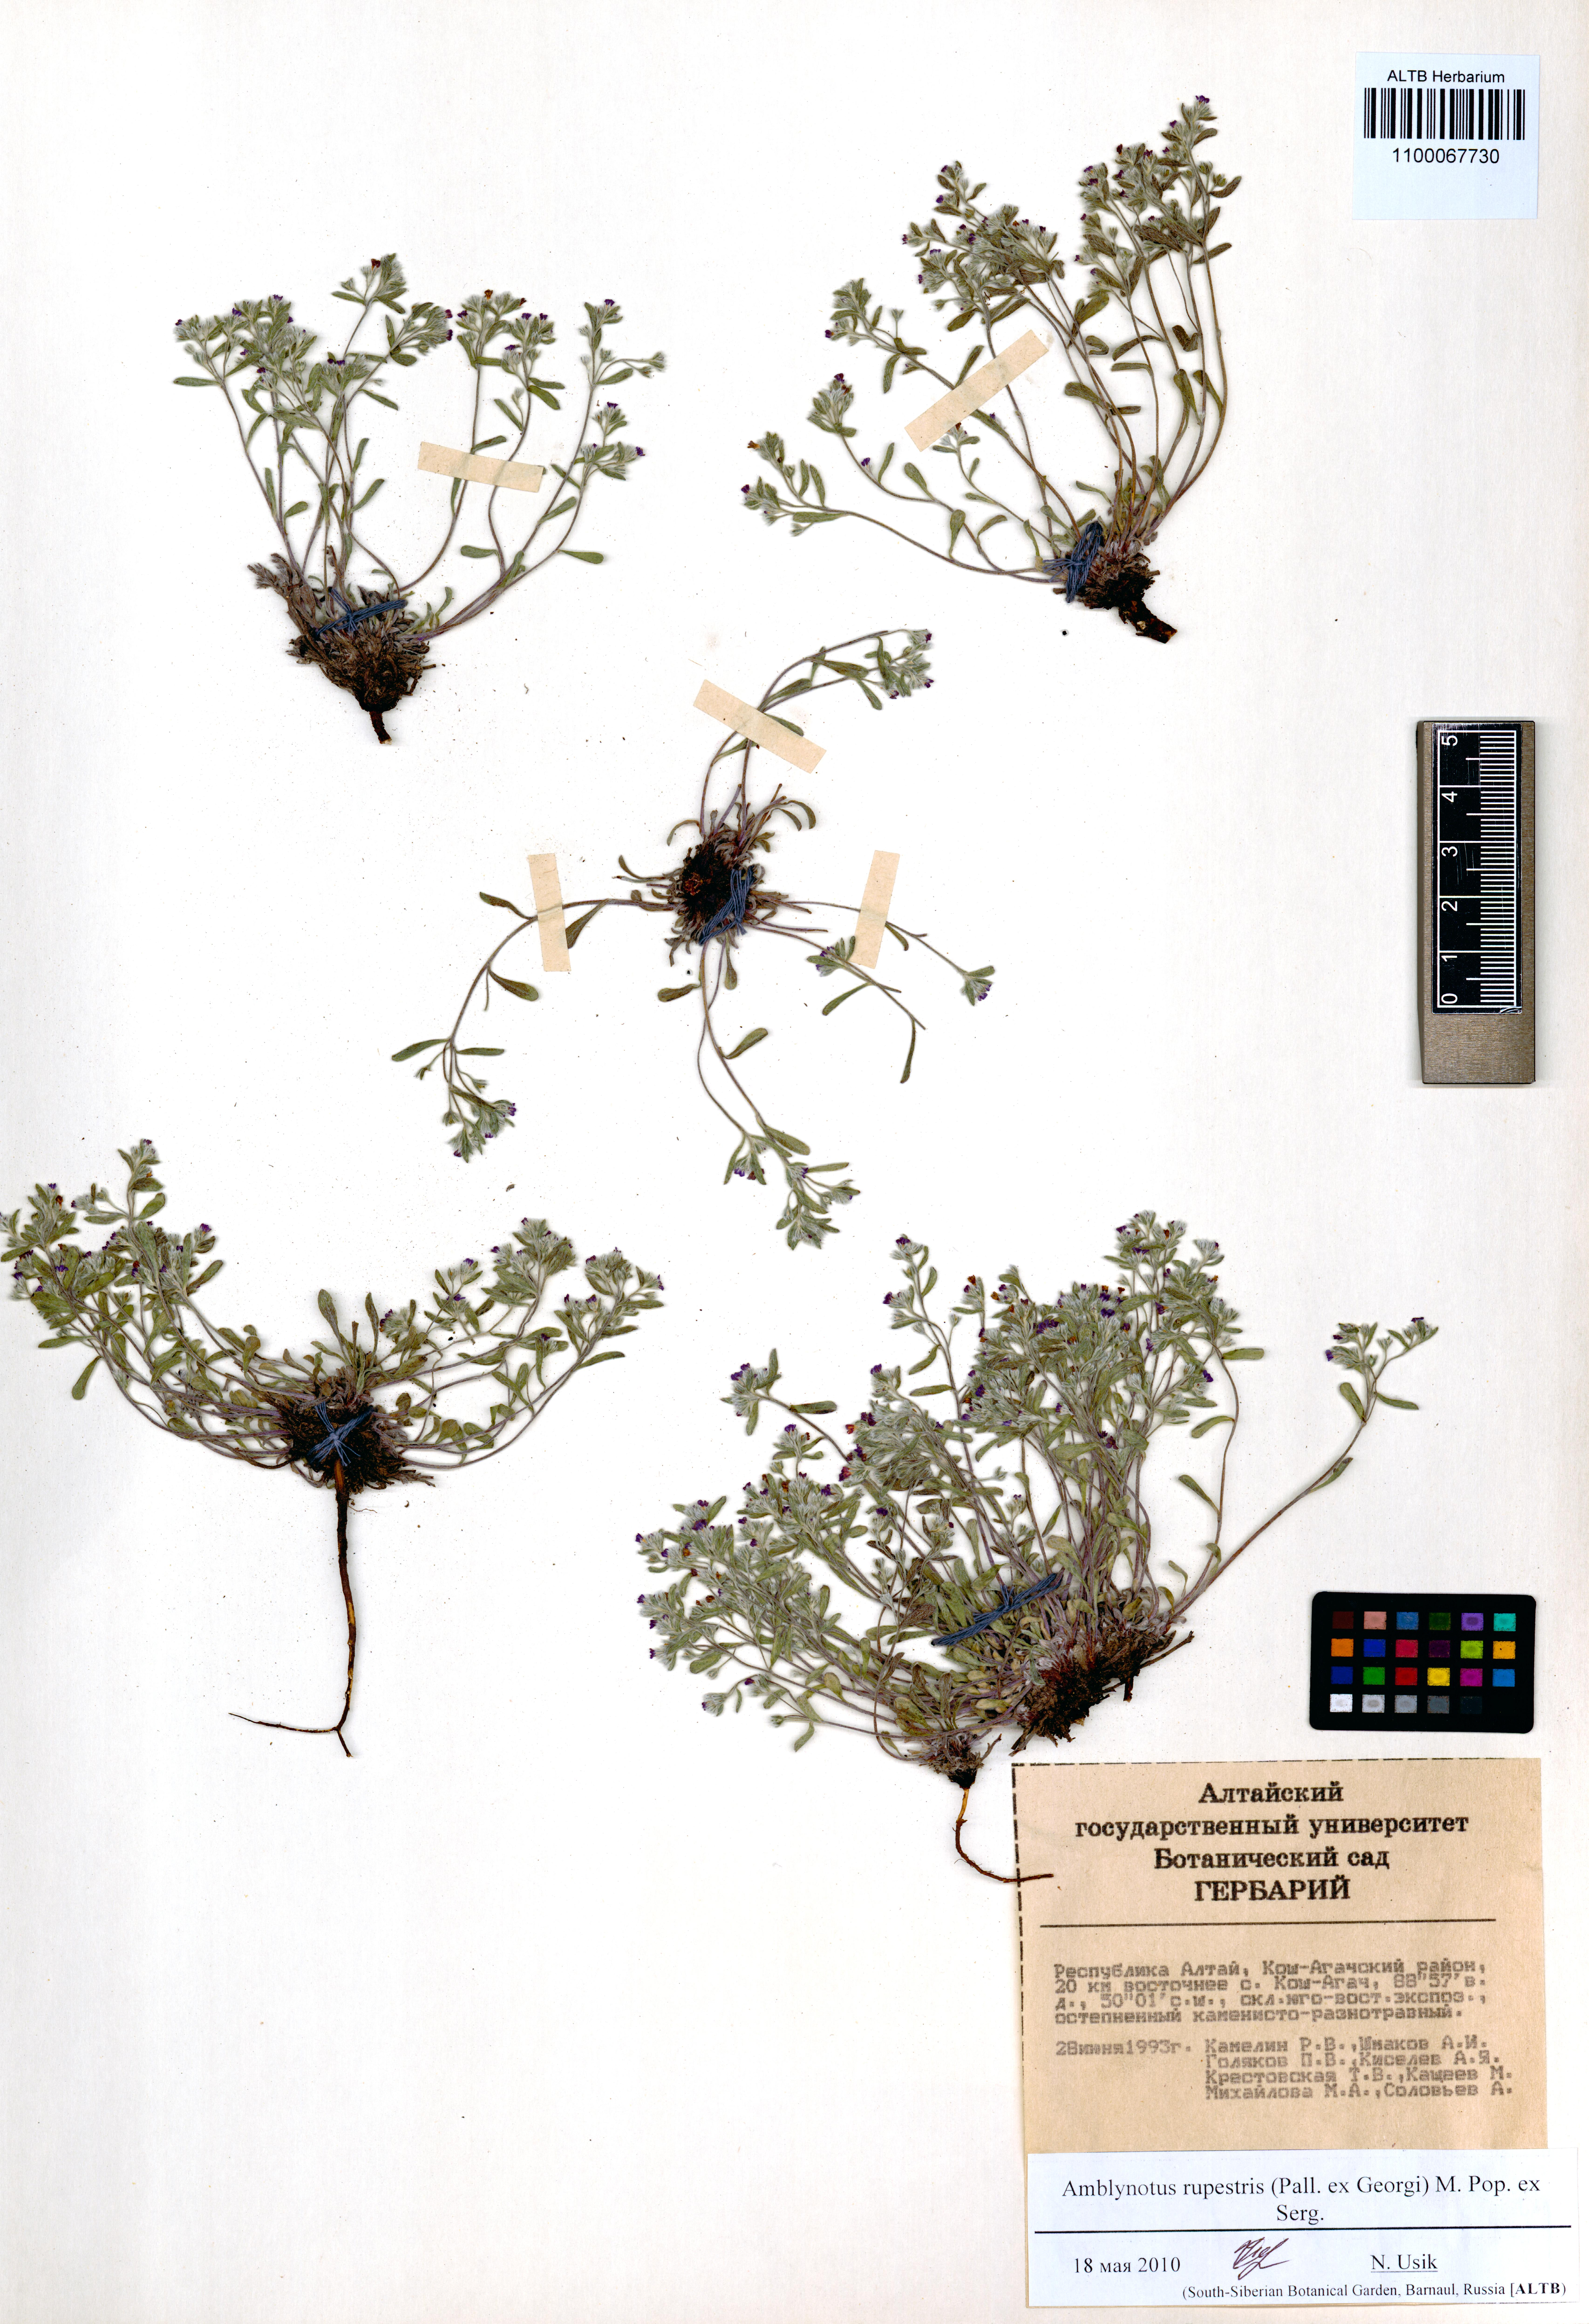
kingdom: Plantae
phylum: Tracheophyta
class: Magnoliopsida
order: Boraginales
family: Boraginaceae
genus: Eritrichium
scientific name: Eritrichium rupestre
